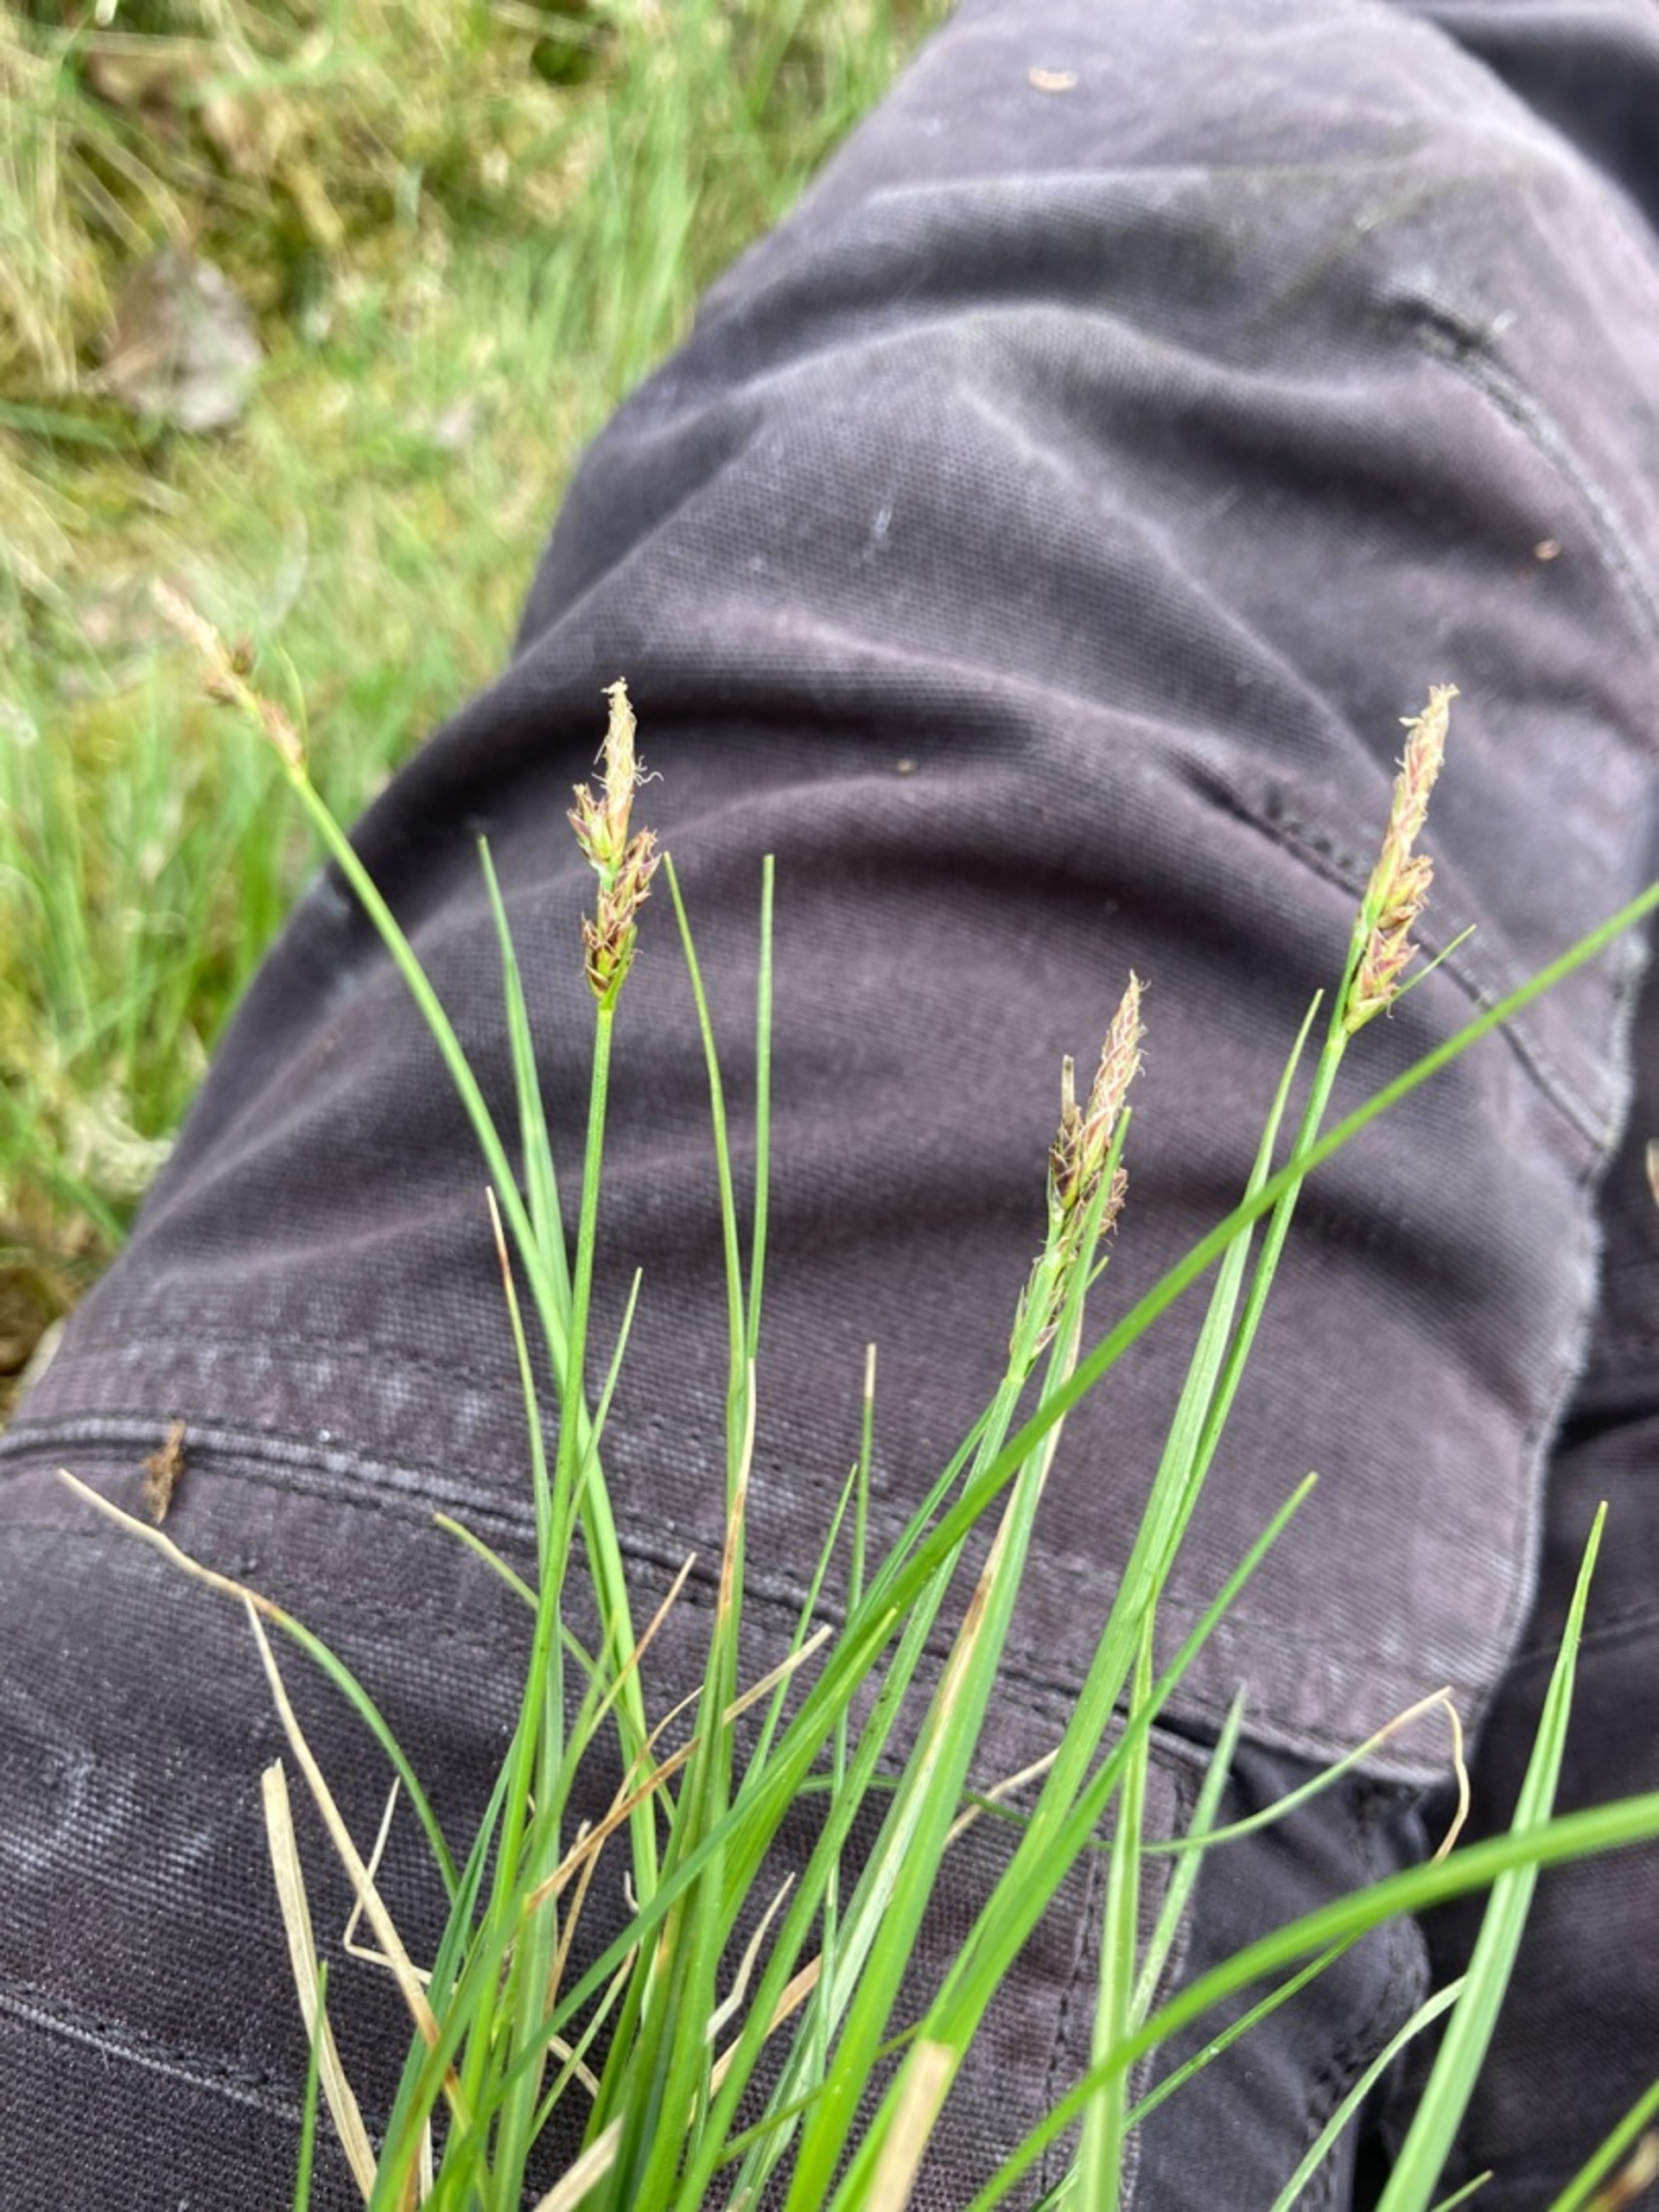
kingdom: Plantae
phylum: Tracheophyta
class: Liliopsida
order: Poales
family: Cyperaceae
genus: Carex
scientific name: Carex pilulifera
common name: Pille-star
